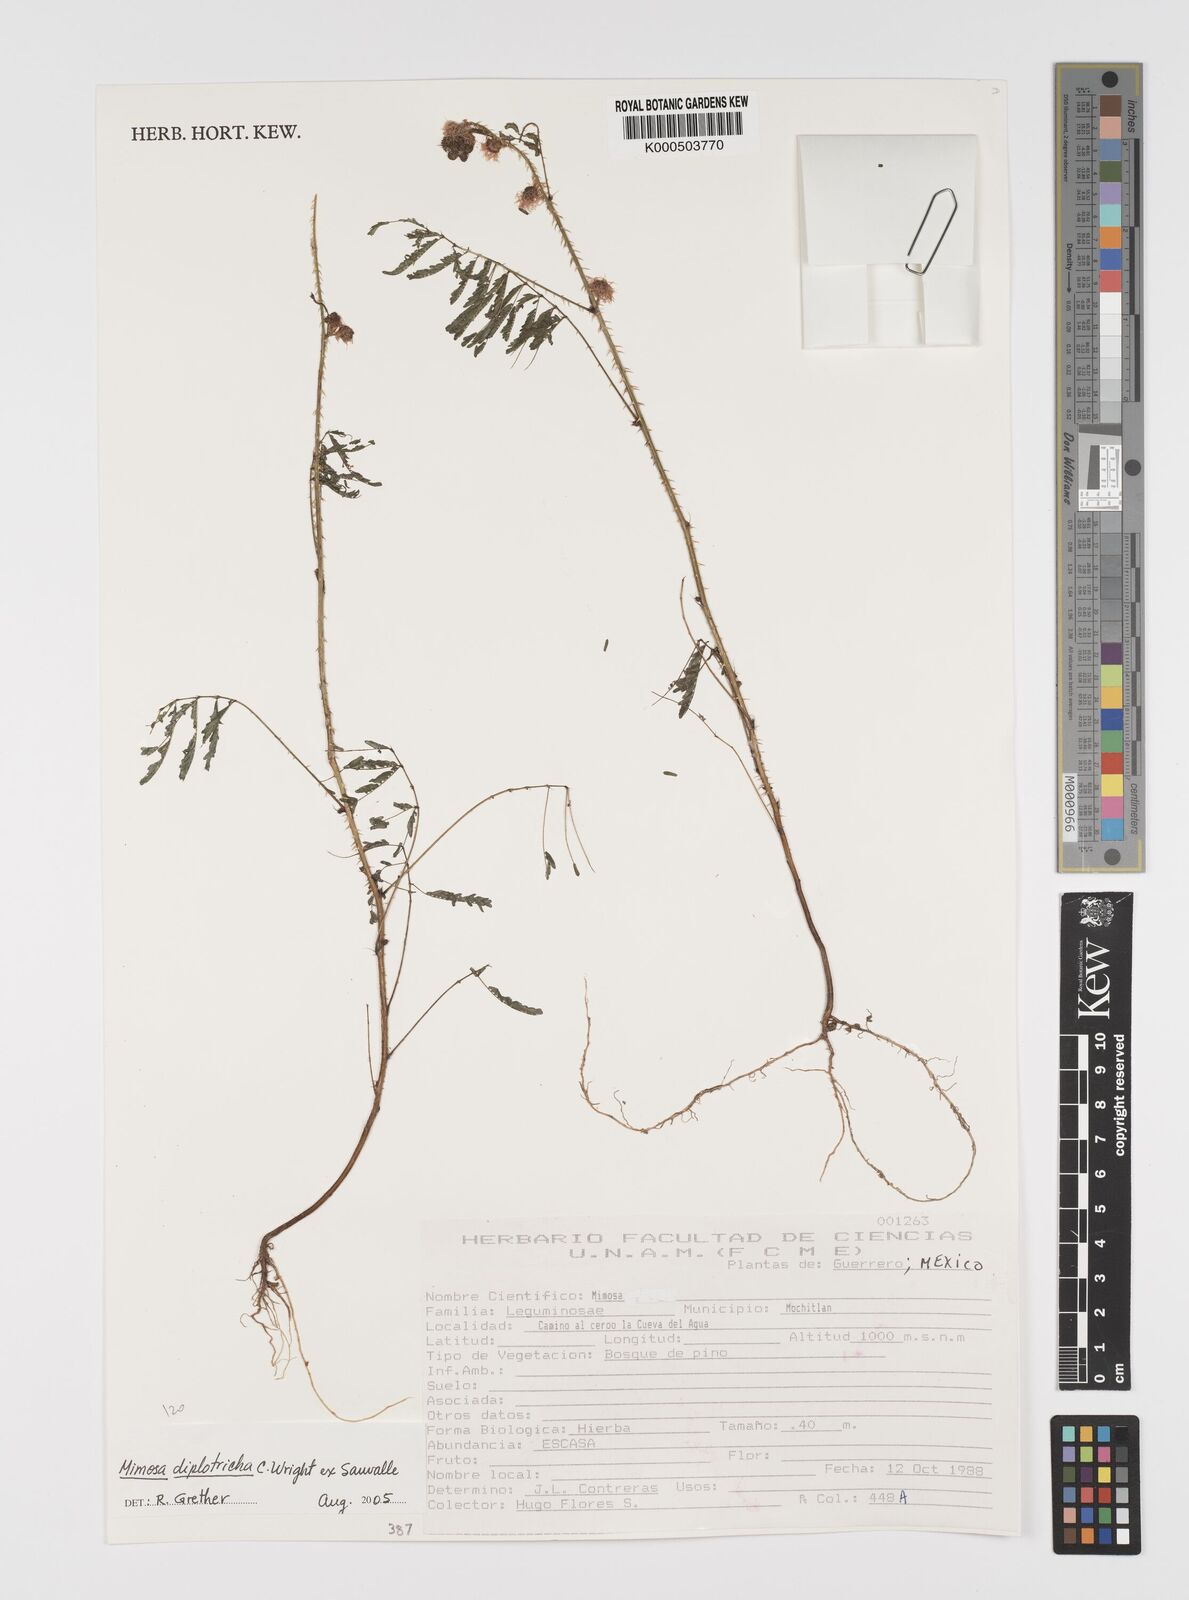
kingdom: Plantae
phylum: Tracheophyta
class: Magnoliopsida
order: Fabales
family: Fabaceae
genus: Mimosa
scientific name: Mimosa diplotricha
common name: Giant sensitive-plant
